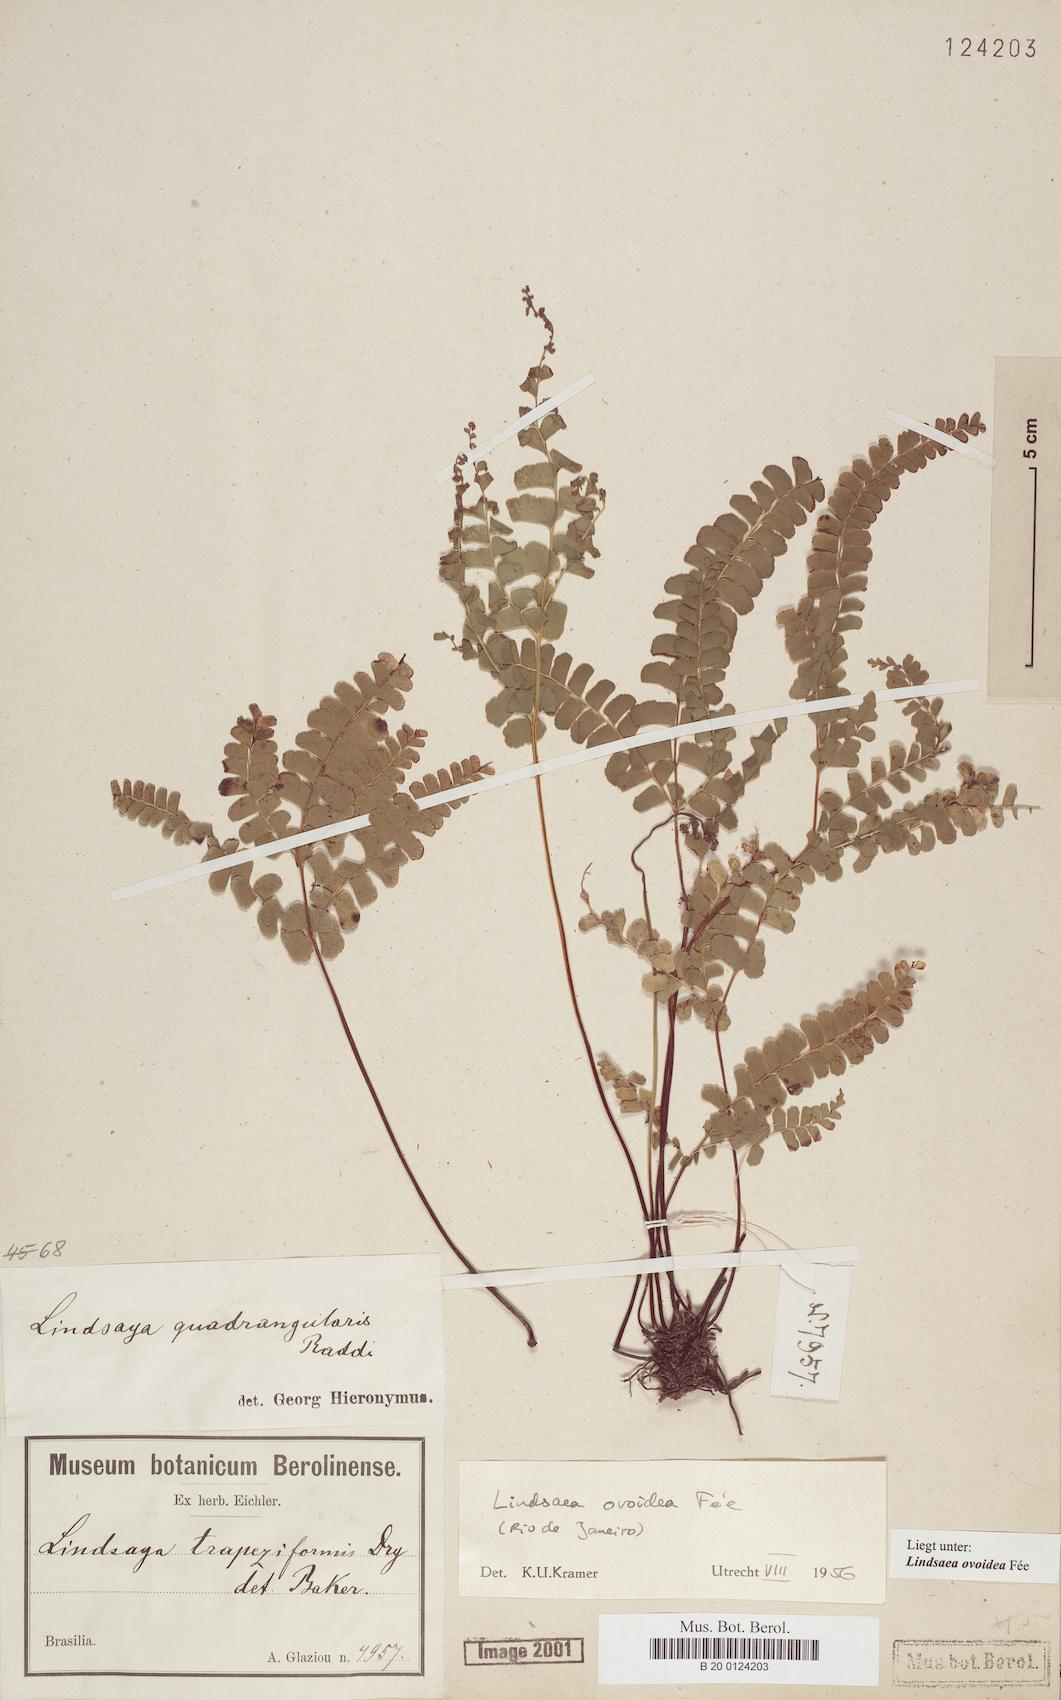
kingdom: Plantae
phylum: Tracheophyta
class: Polypodiopsida
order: Polypodiales
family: Lindsaeaceae
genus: Lindsaea
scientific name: Lindsaea ovoidea
